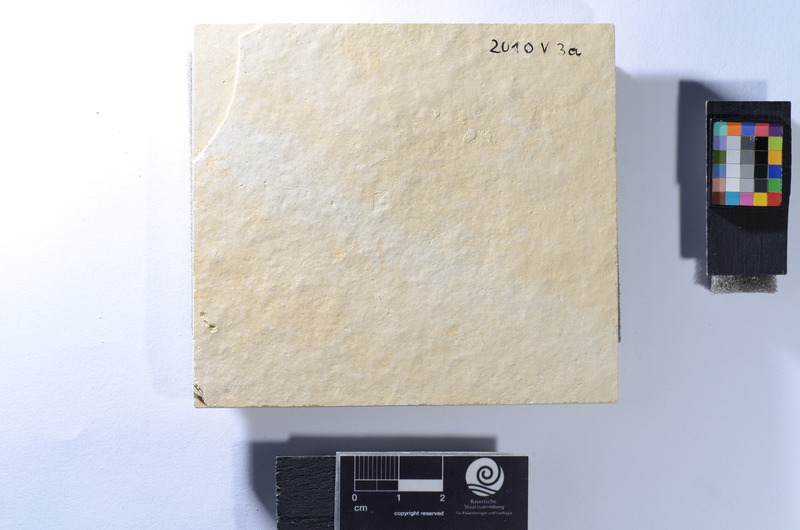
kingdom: Animalia
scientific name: Animalia
